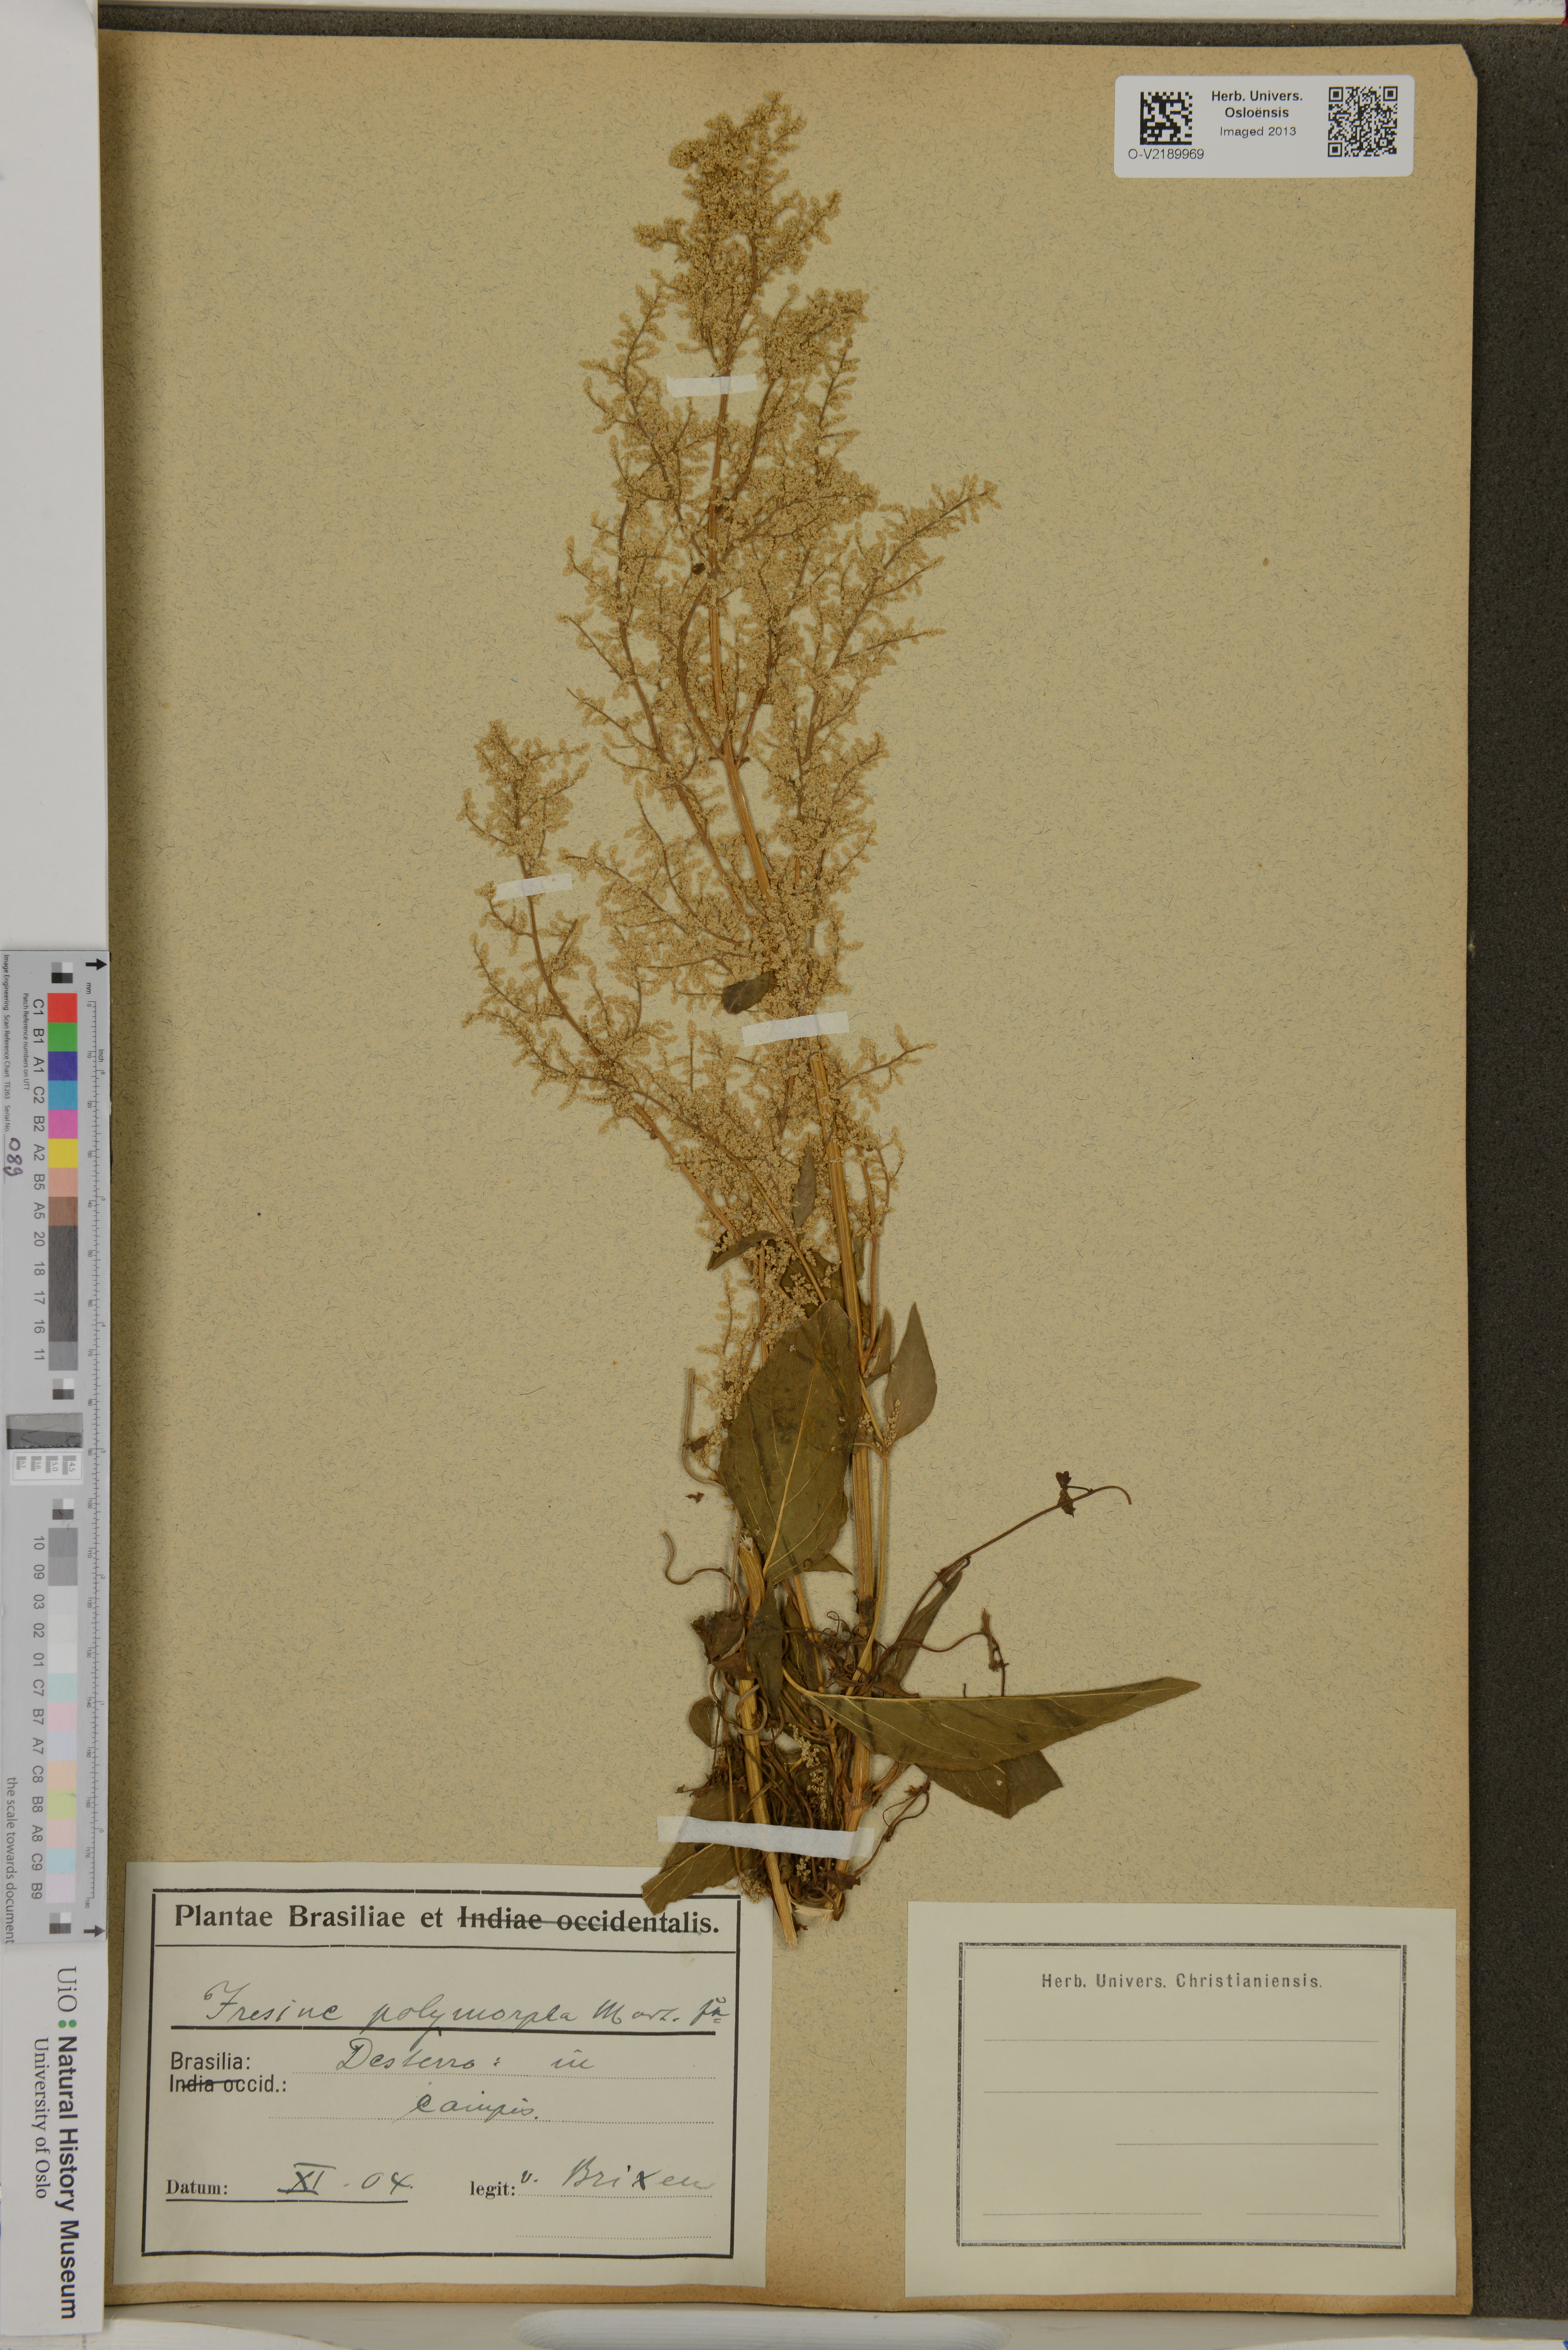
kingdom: Plantae
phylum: Tracheophyta
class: Magnoliopsida
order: Caryophyllales
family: Amaranthaceae
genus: Iresine
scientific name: Iresine diffusa
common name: Juba's-bush
